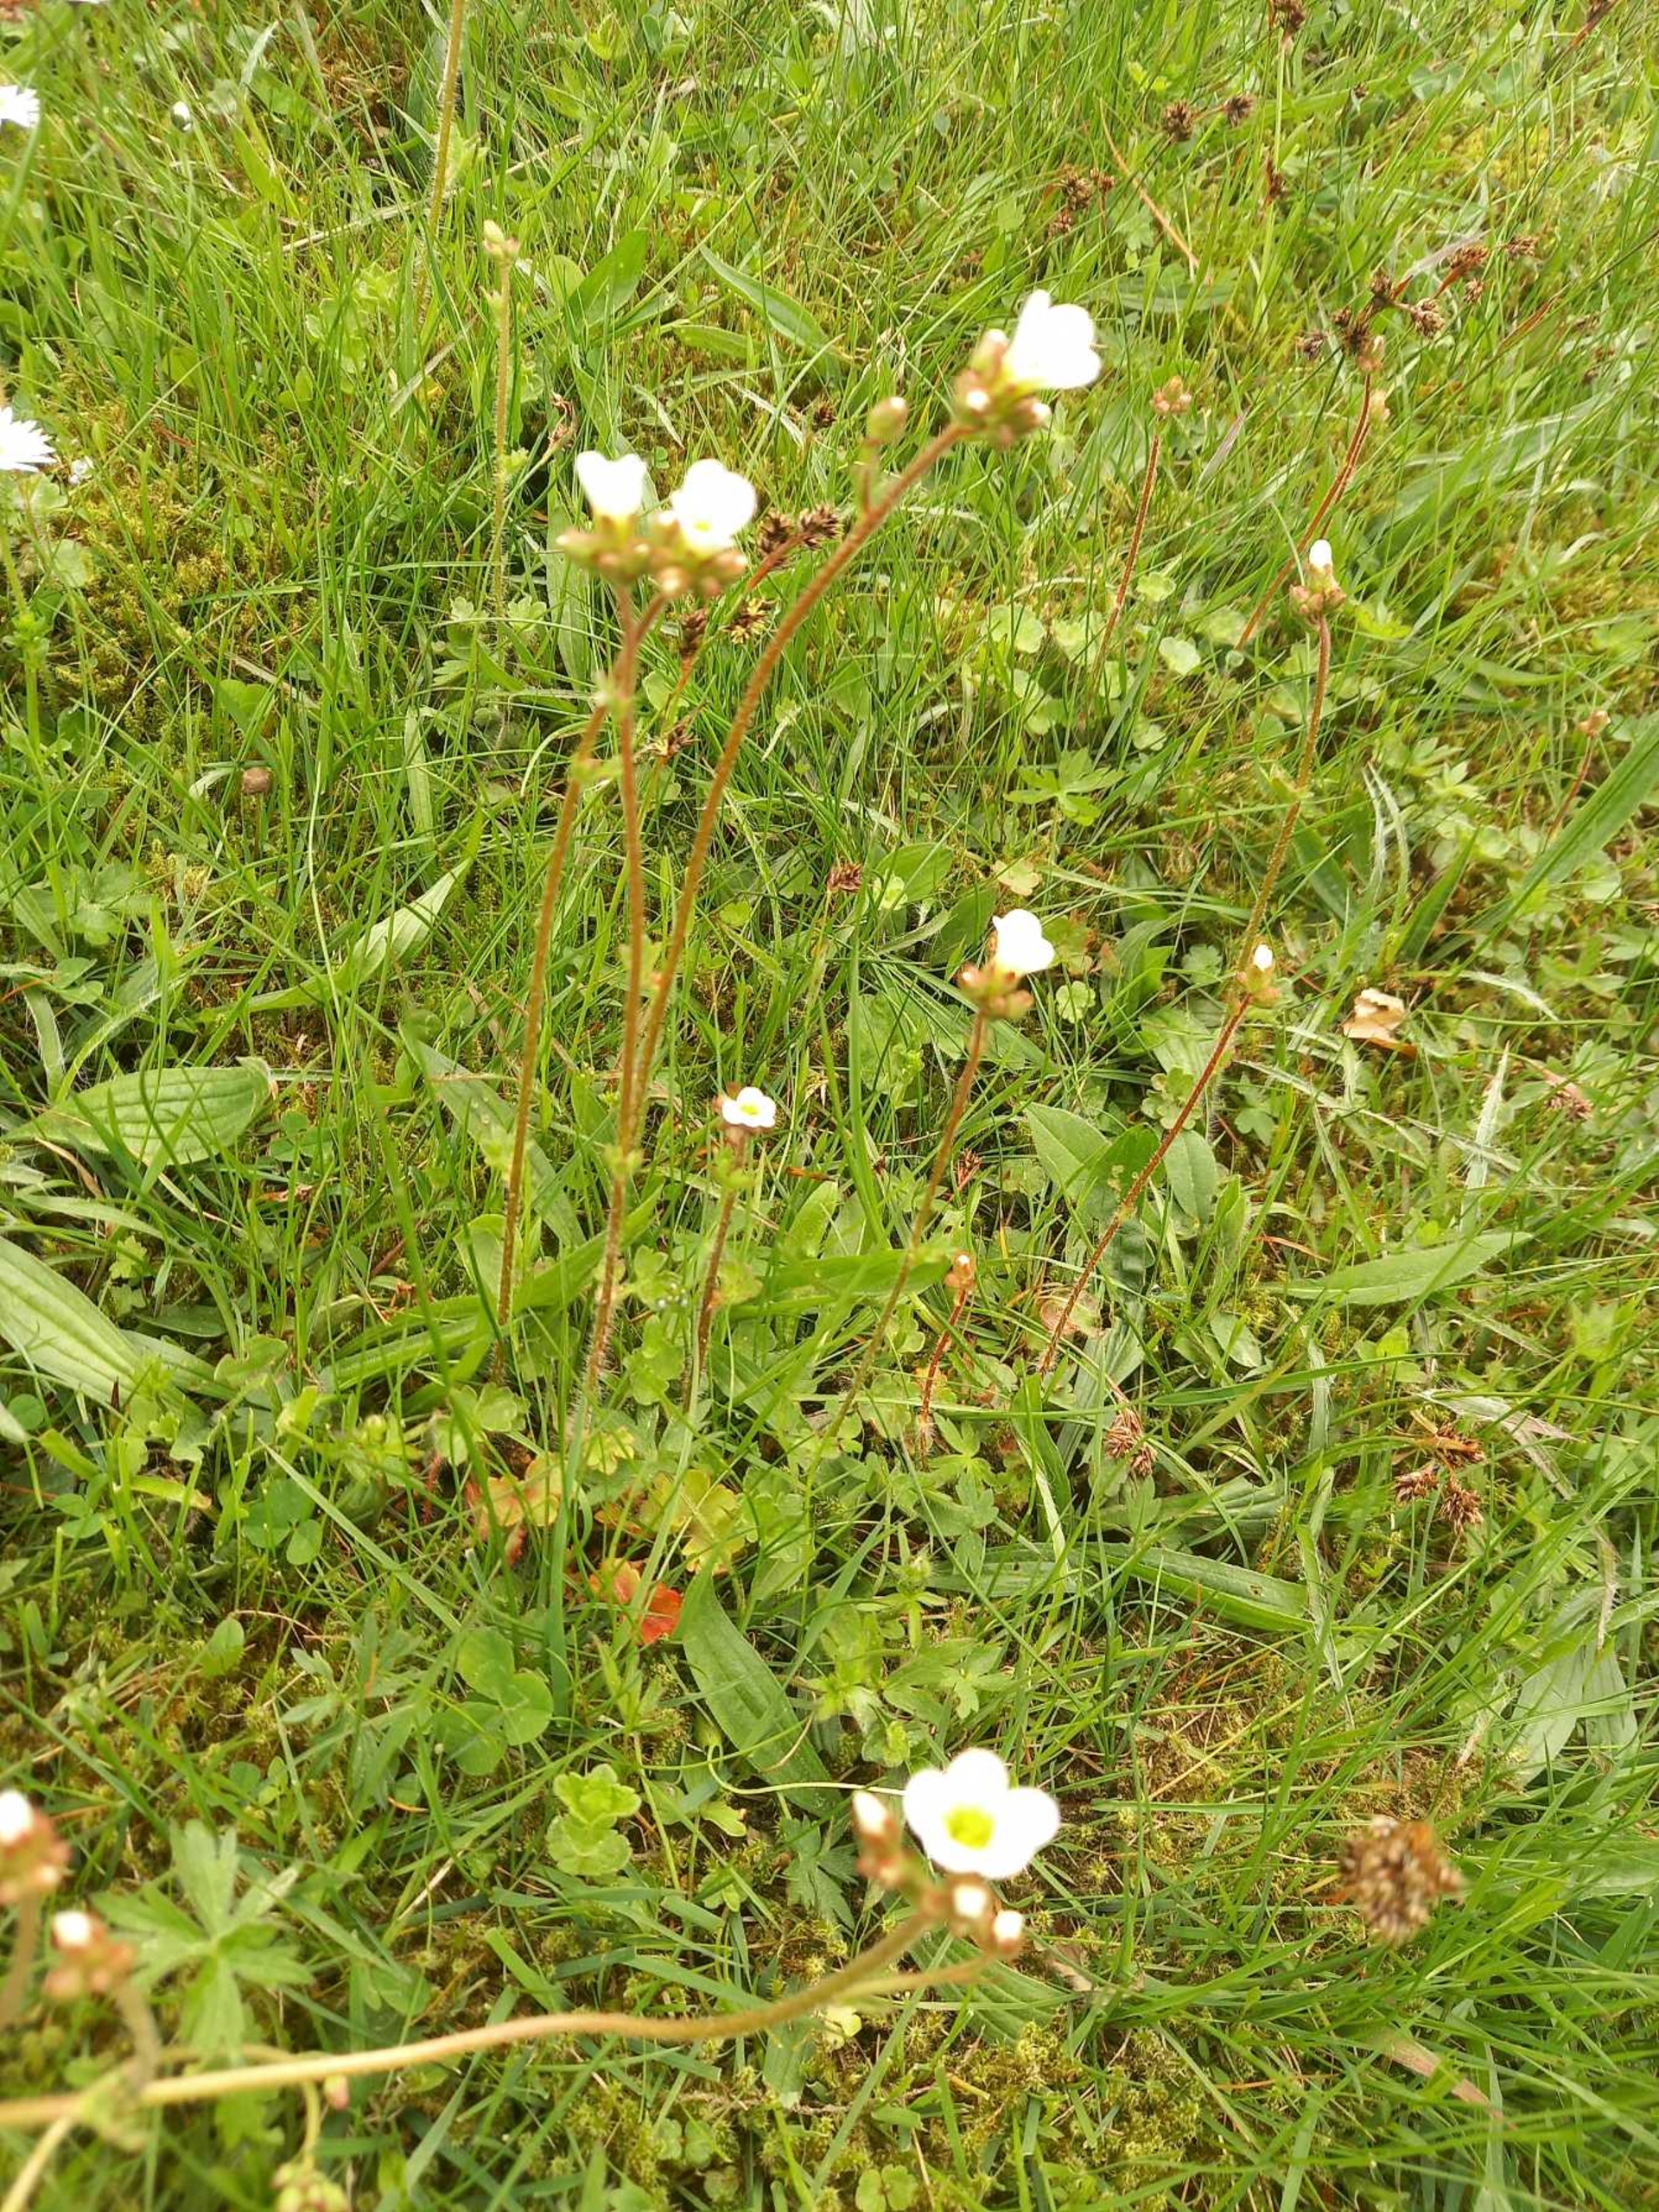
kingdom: Plantae
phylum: Tracheophyta
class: Magnoliopsida
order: Saxifragales
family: Saxifragaceae
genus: Saxifraga
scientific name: Saxifraga granulata
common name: Kornet stenbræk
